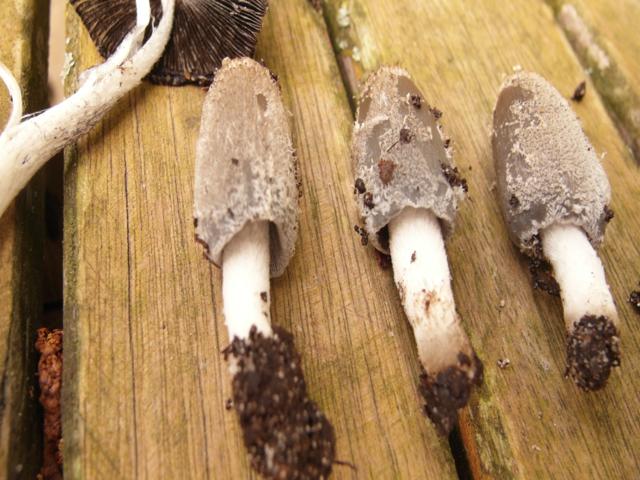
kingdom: Fungi
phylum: Basidiomycota
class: Agaricomycetes
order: Agaricales
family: Psathyrellaceae
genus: Coprinopsis
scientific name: Coprinopsis lagopus
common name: dunstokket blækhat
